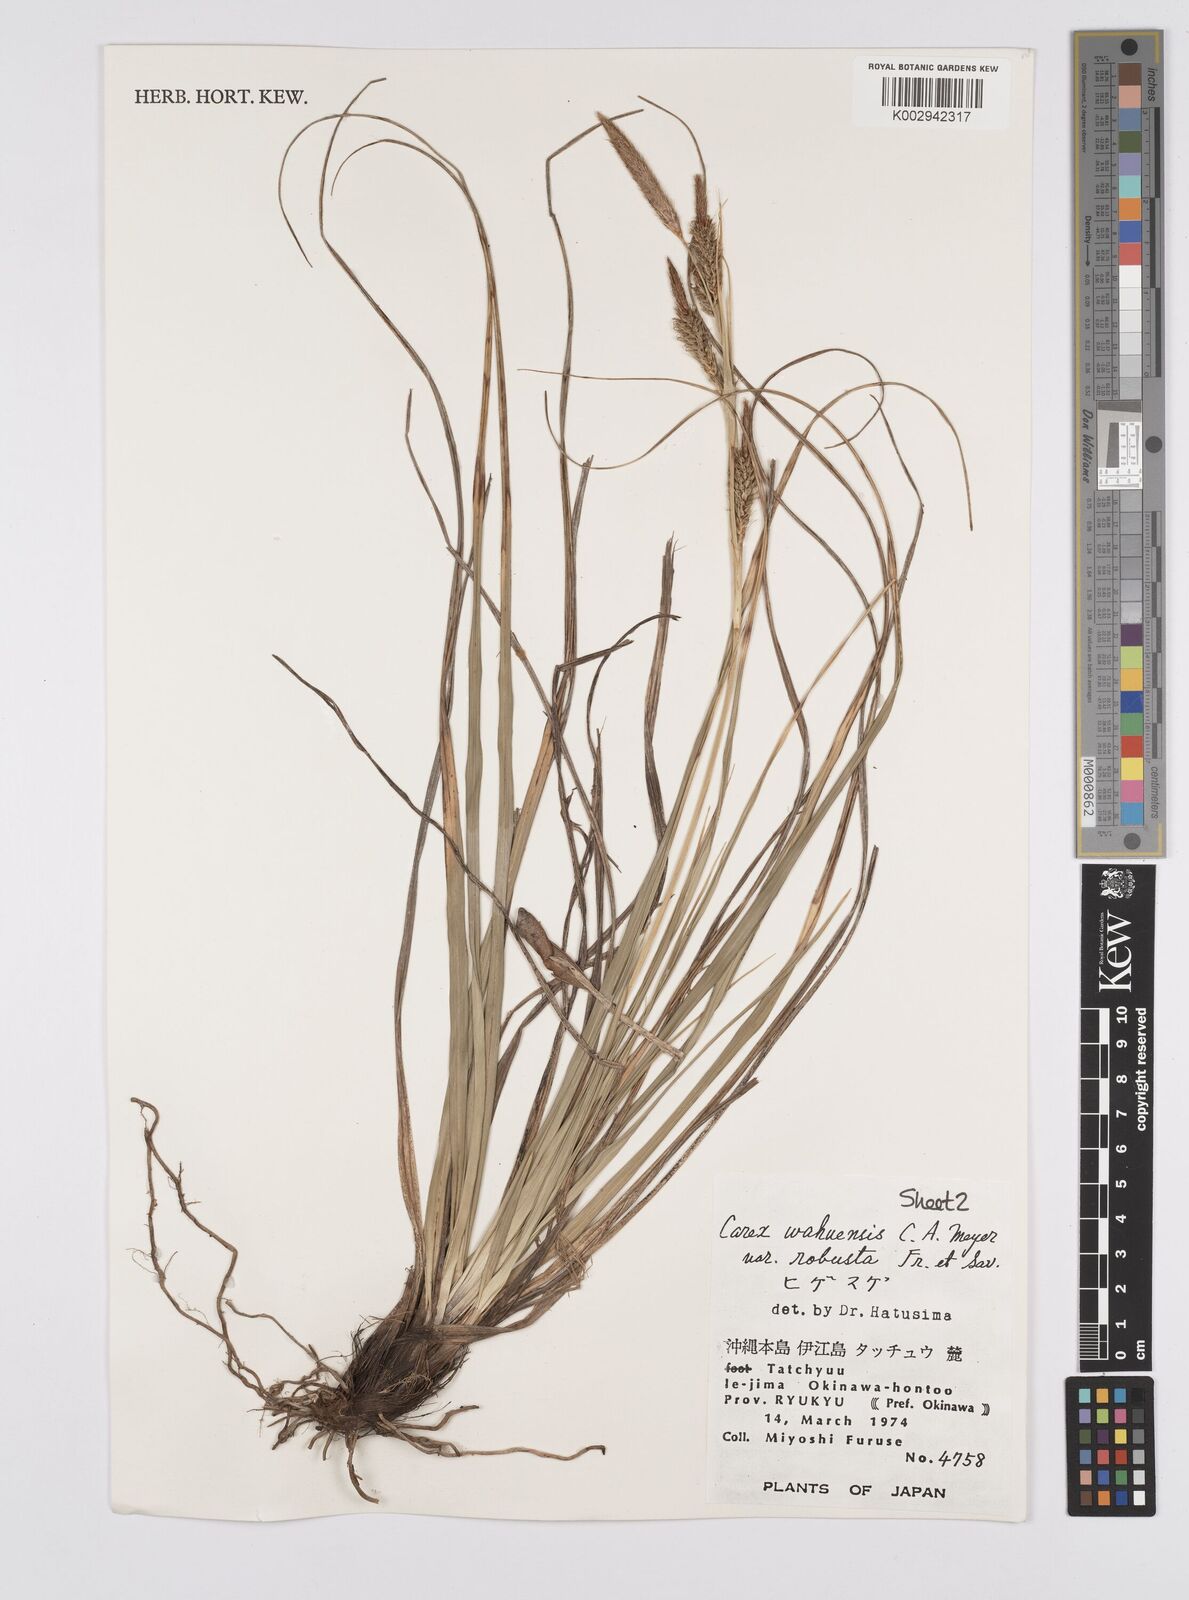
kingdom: Plantae
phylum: Tracheophyta
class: Liliopsida
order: Poales
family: Cyperaceae
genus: Carex
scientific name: Carex wahuensis
